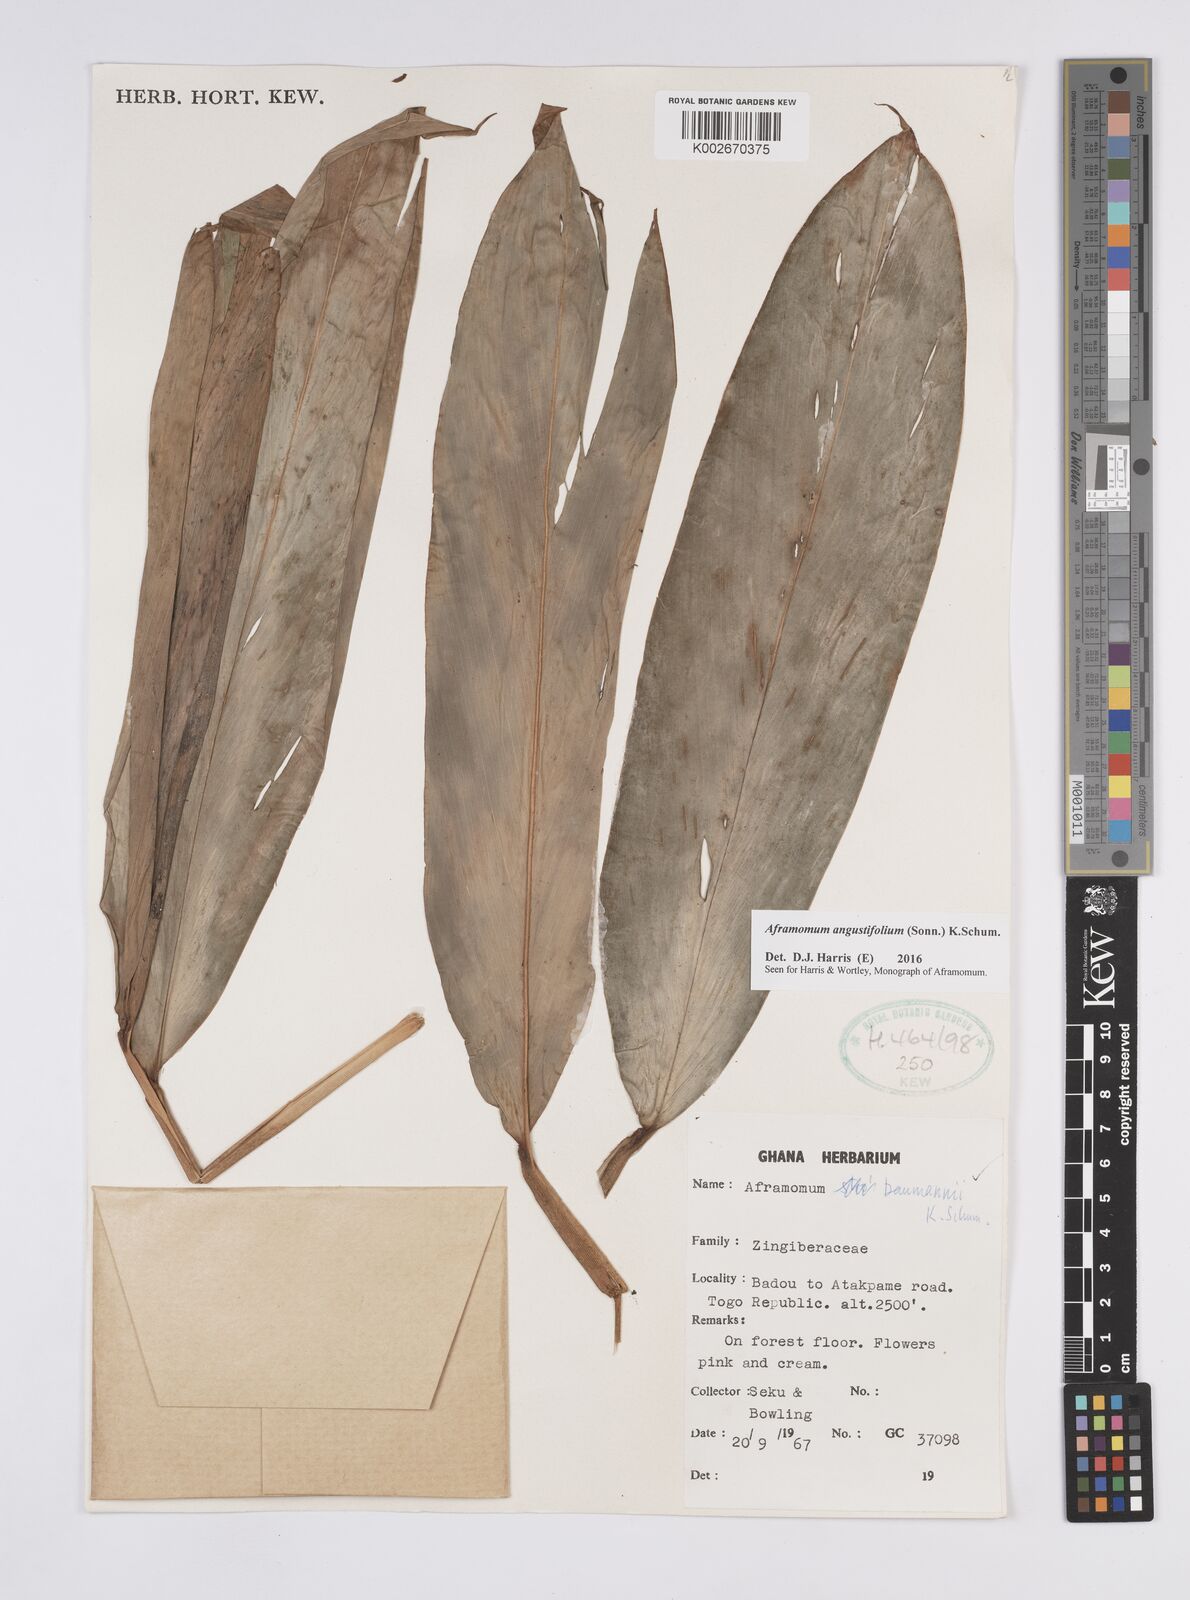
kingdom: Plantae
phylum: Tracheophyta
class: Liliopsida
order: Zingiberales
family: Zingiberaceae
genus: Aframomum
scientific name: Aframomum angustifolium
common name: Guinea grains
